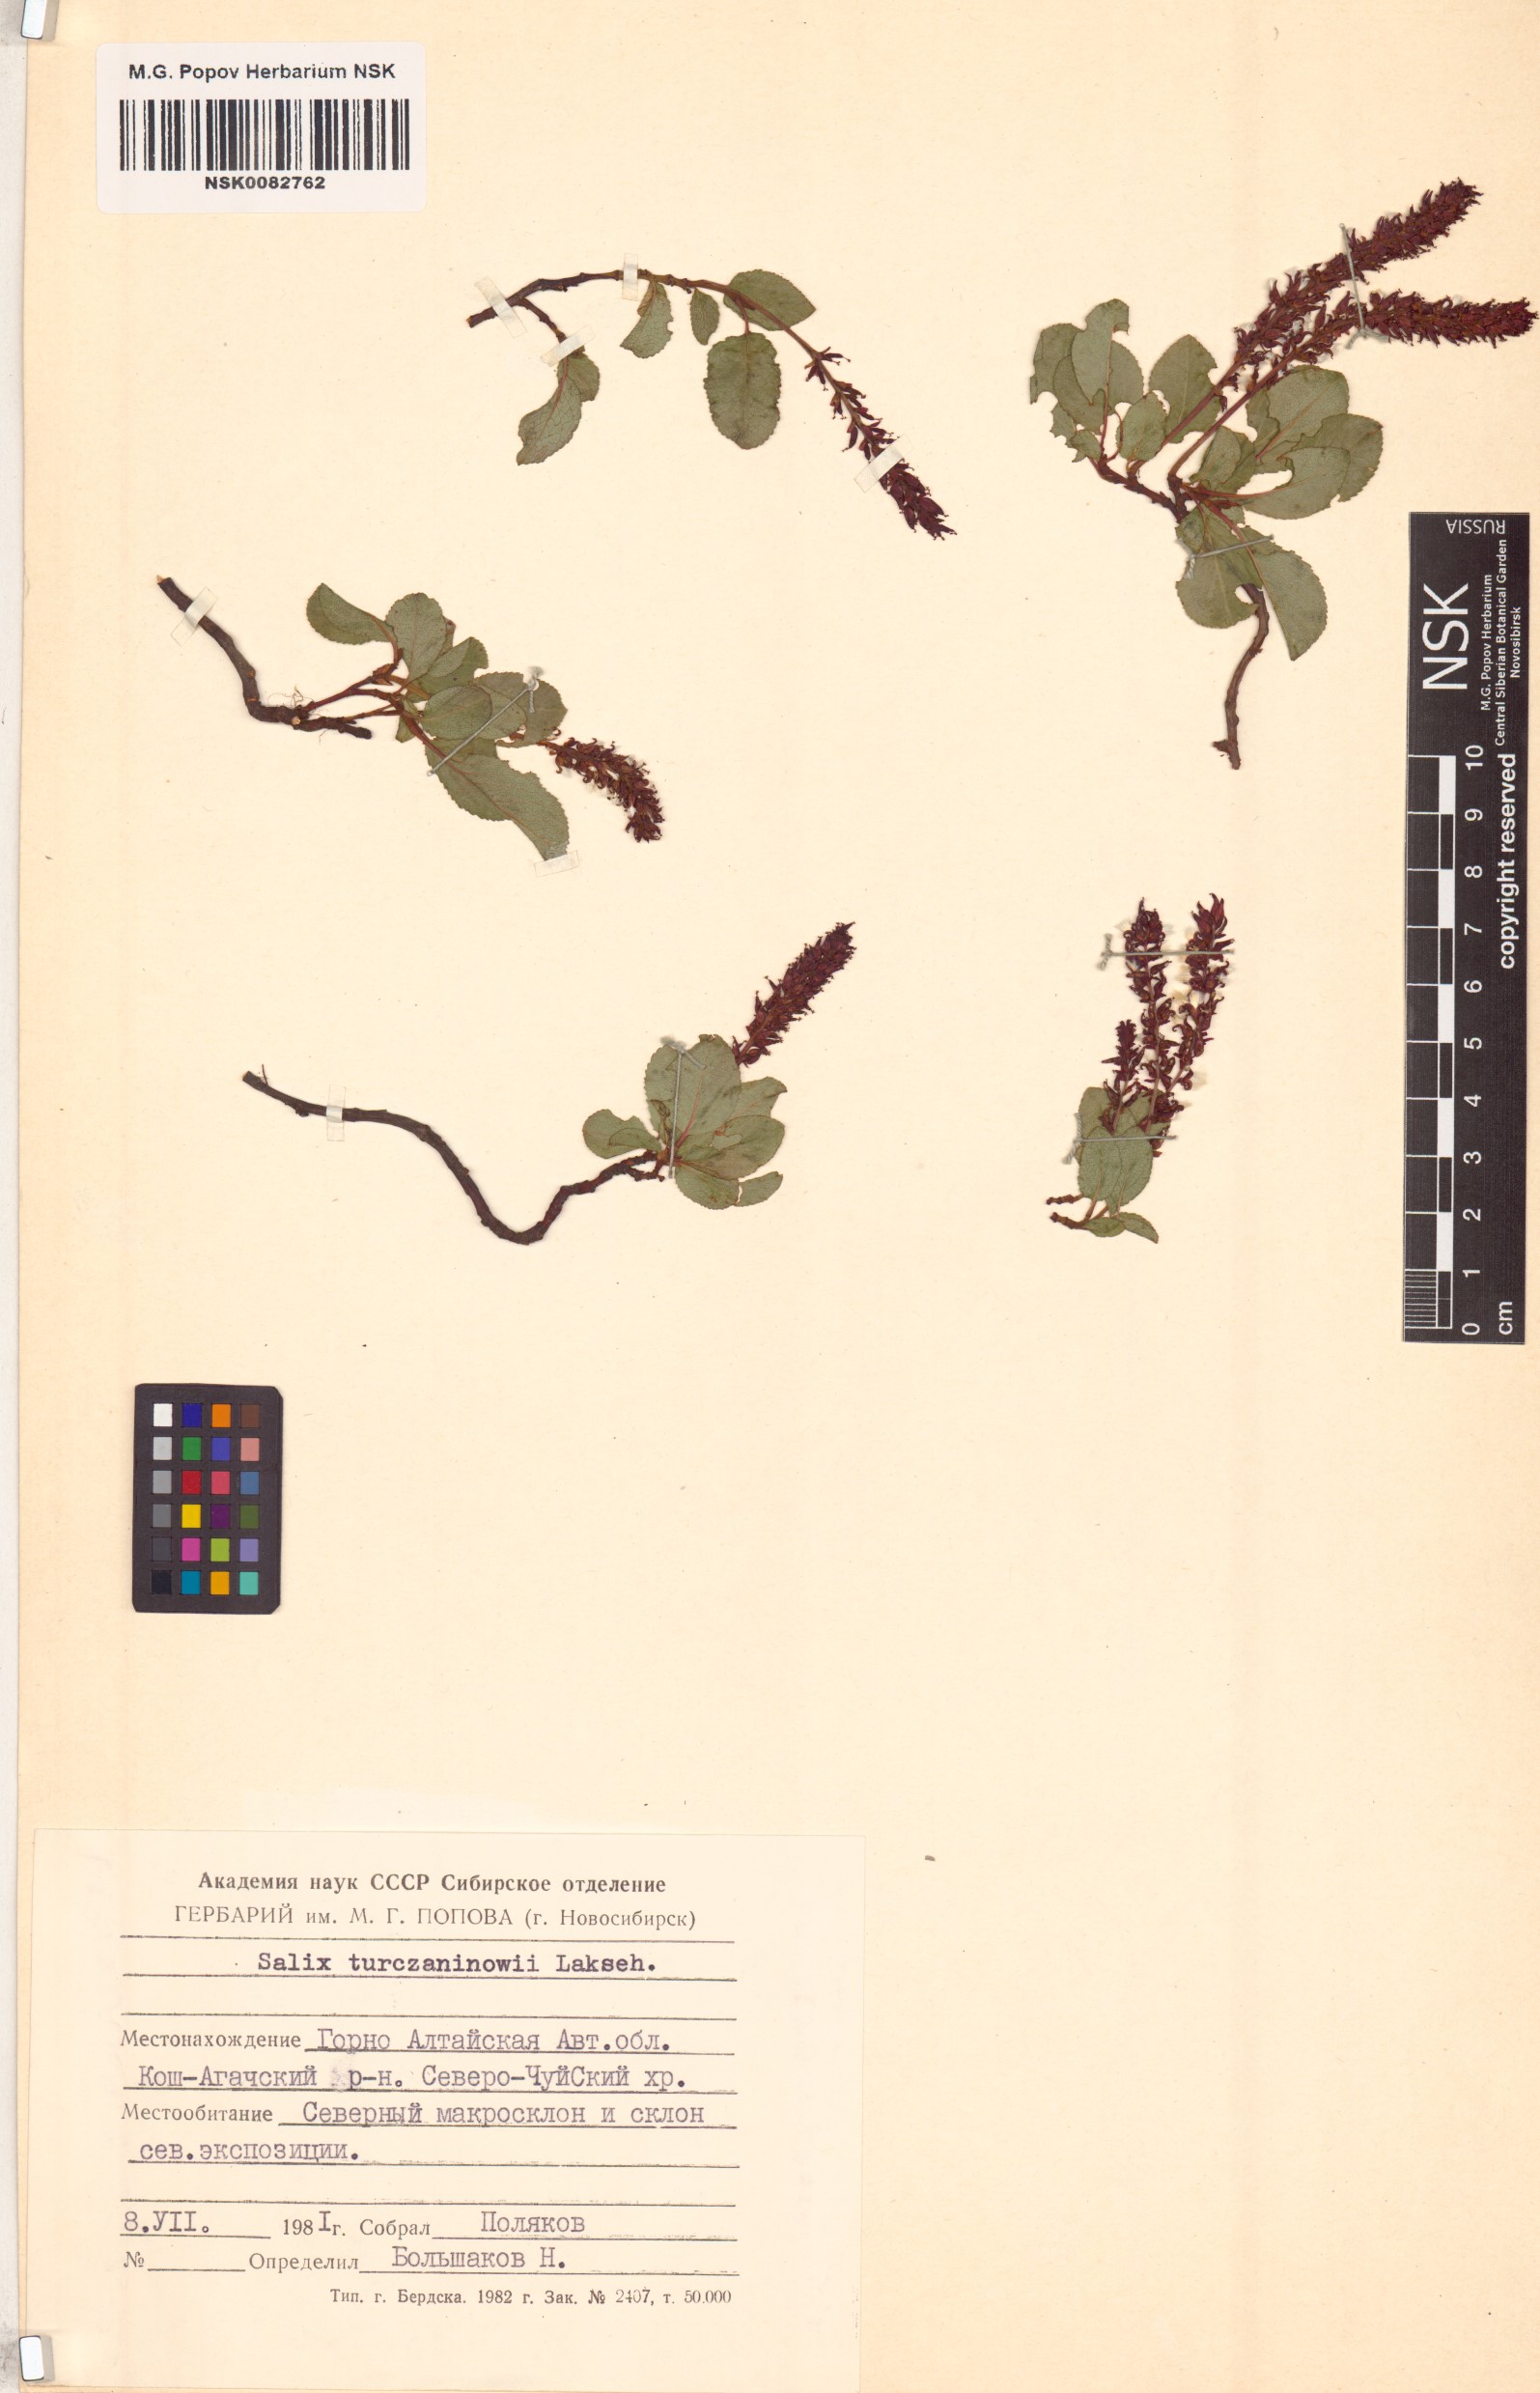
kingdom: Plantae
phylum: Tracheophyta
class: Magnoliopsida
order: Malpighiales
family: Salicaceae
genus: Salix
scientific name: Salix turczaninowii
